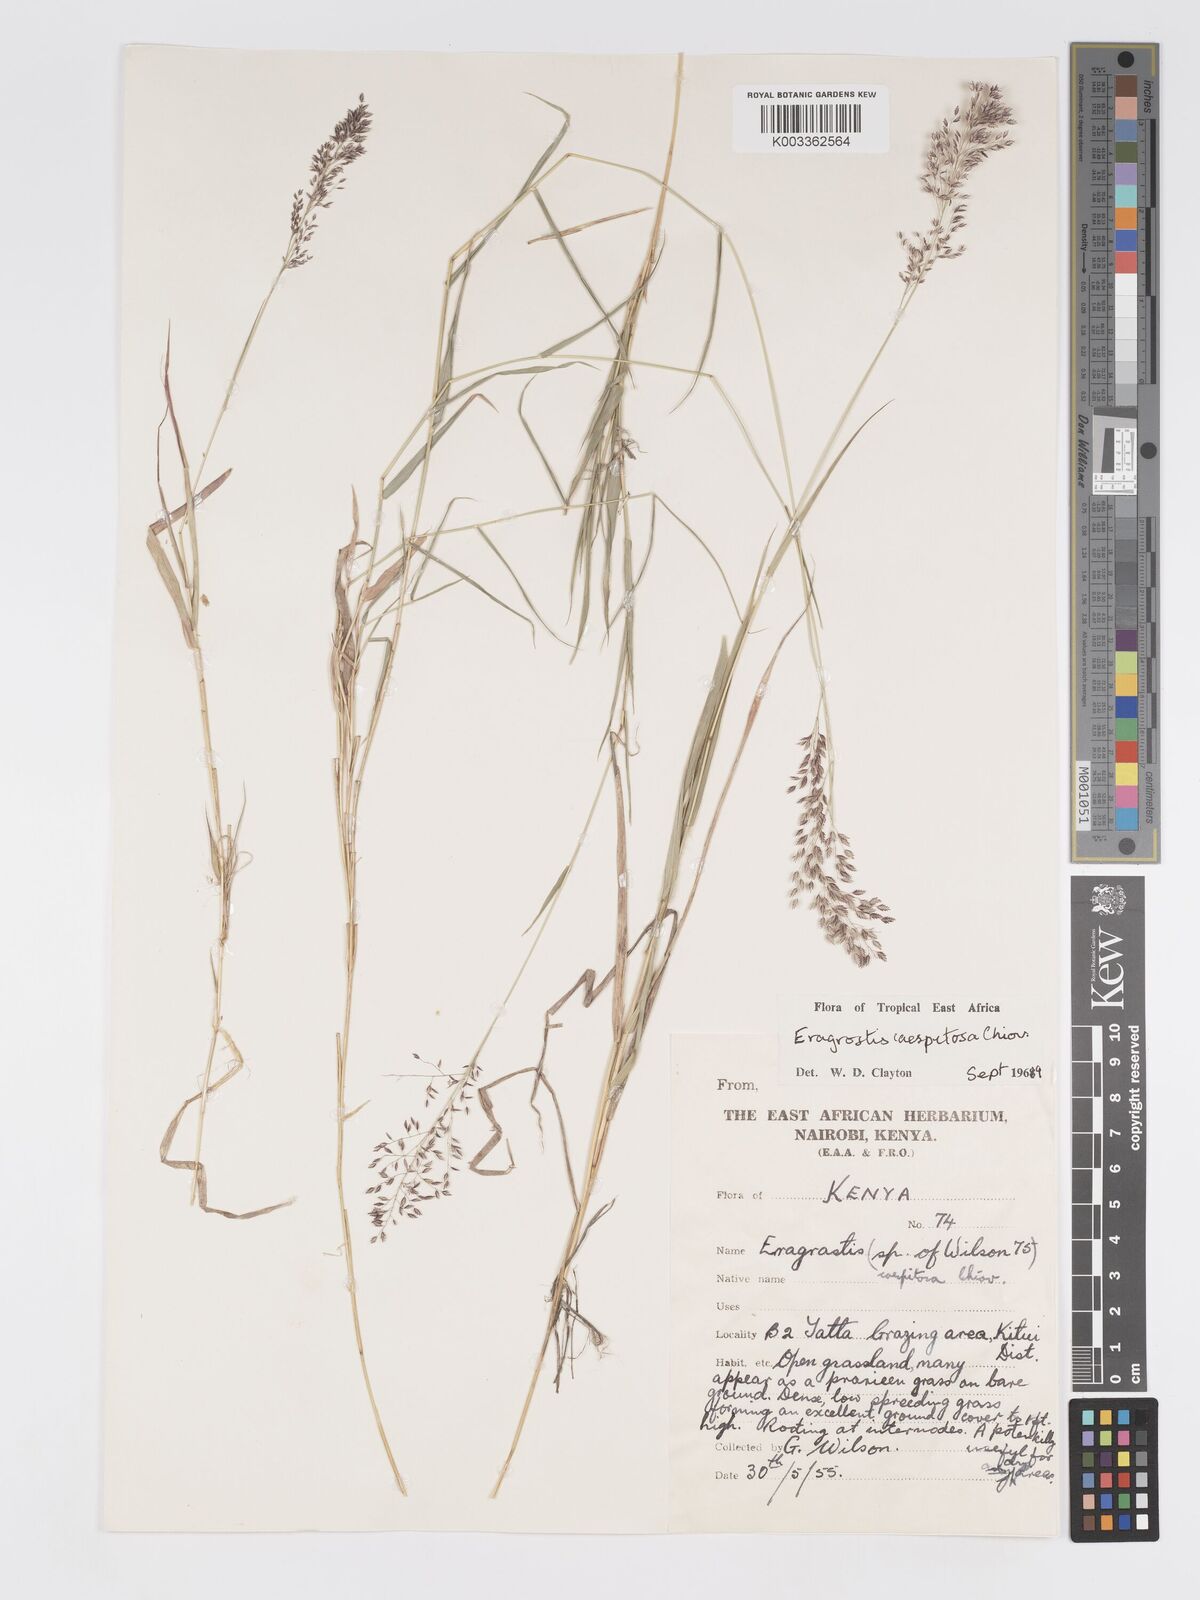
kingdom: Plantae
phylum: Tracheophyta
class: Liliopsida
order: Poales
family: Poaceae
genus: Eragrostis
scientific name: Eragrostis caespitosa
